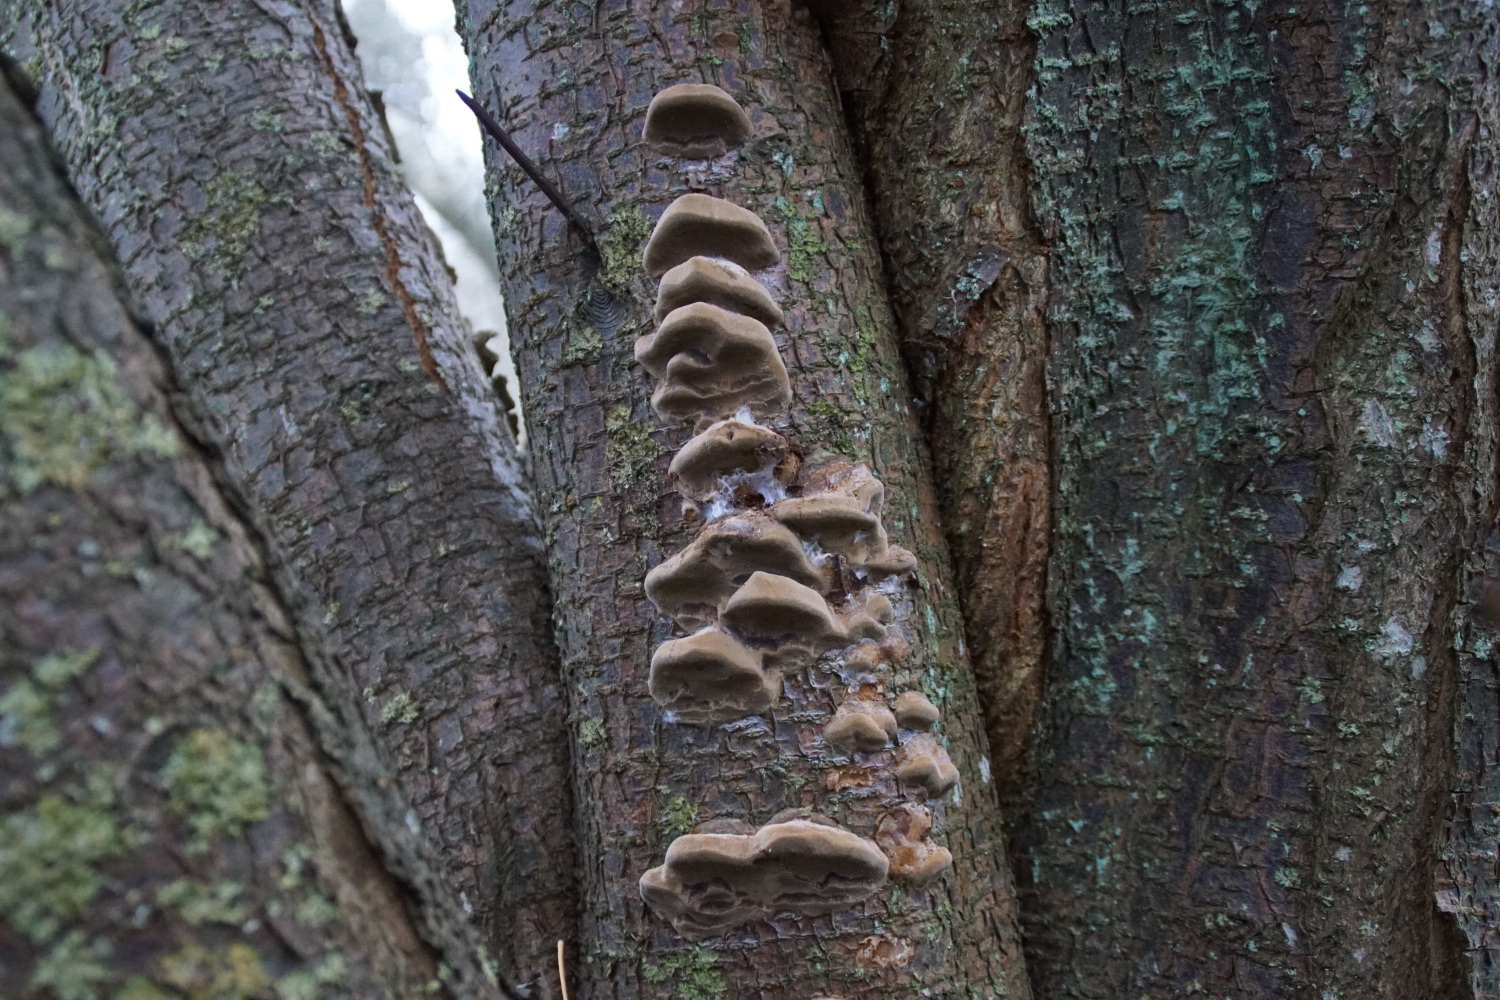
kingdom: Fungi
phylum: Basidiomycota
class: Agaricomycetes
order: Hymenochaetales
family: Hymenochaetaceae
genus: Phellinus
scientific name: Phellinus pomaceus
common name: blomme-ildporesvamp
